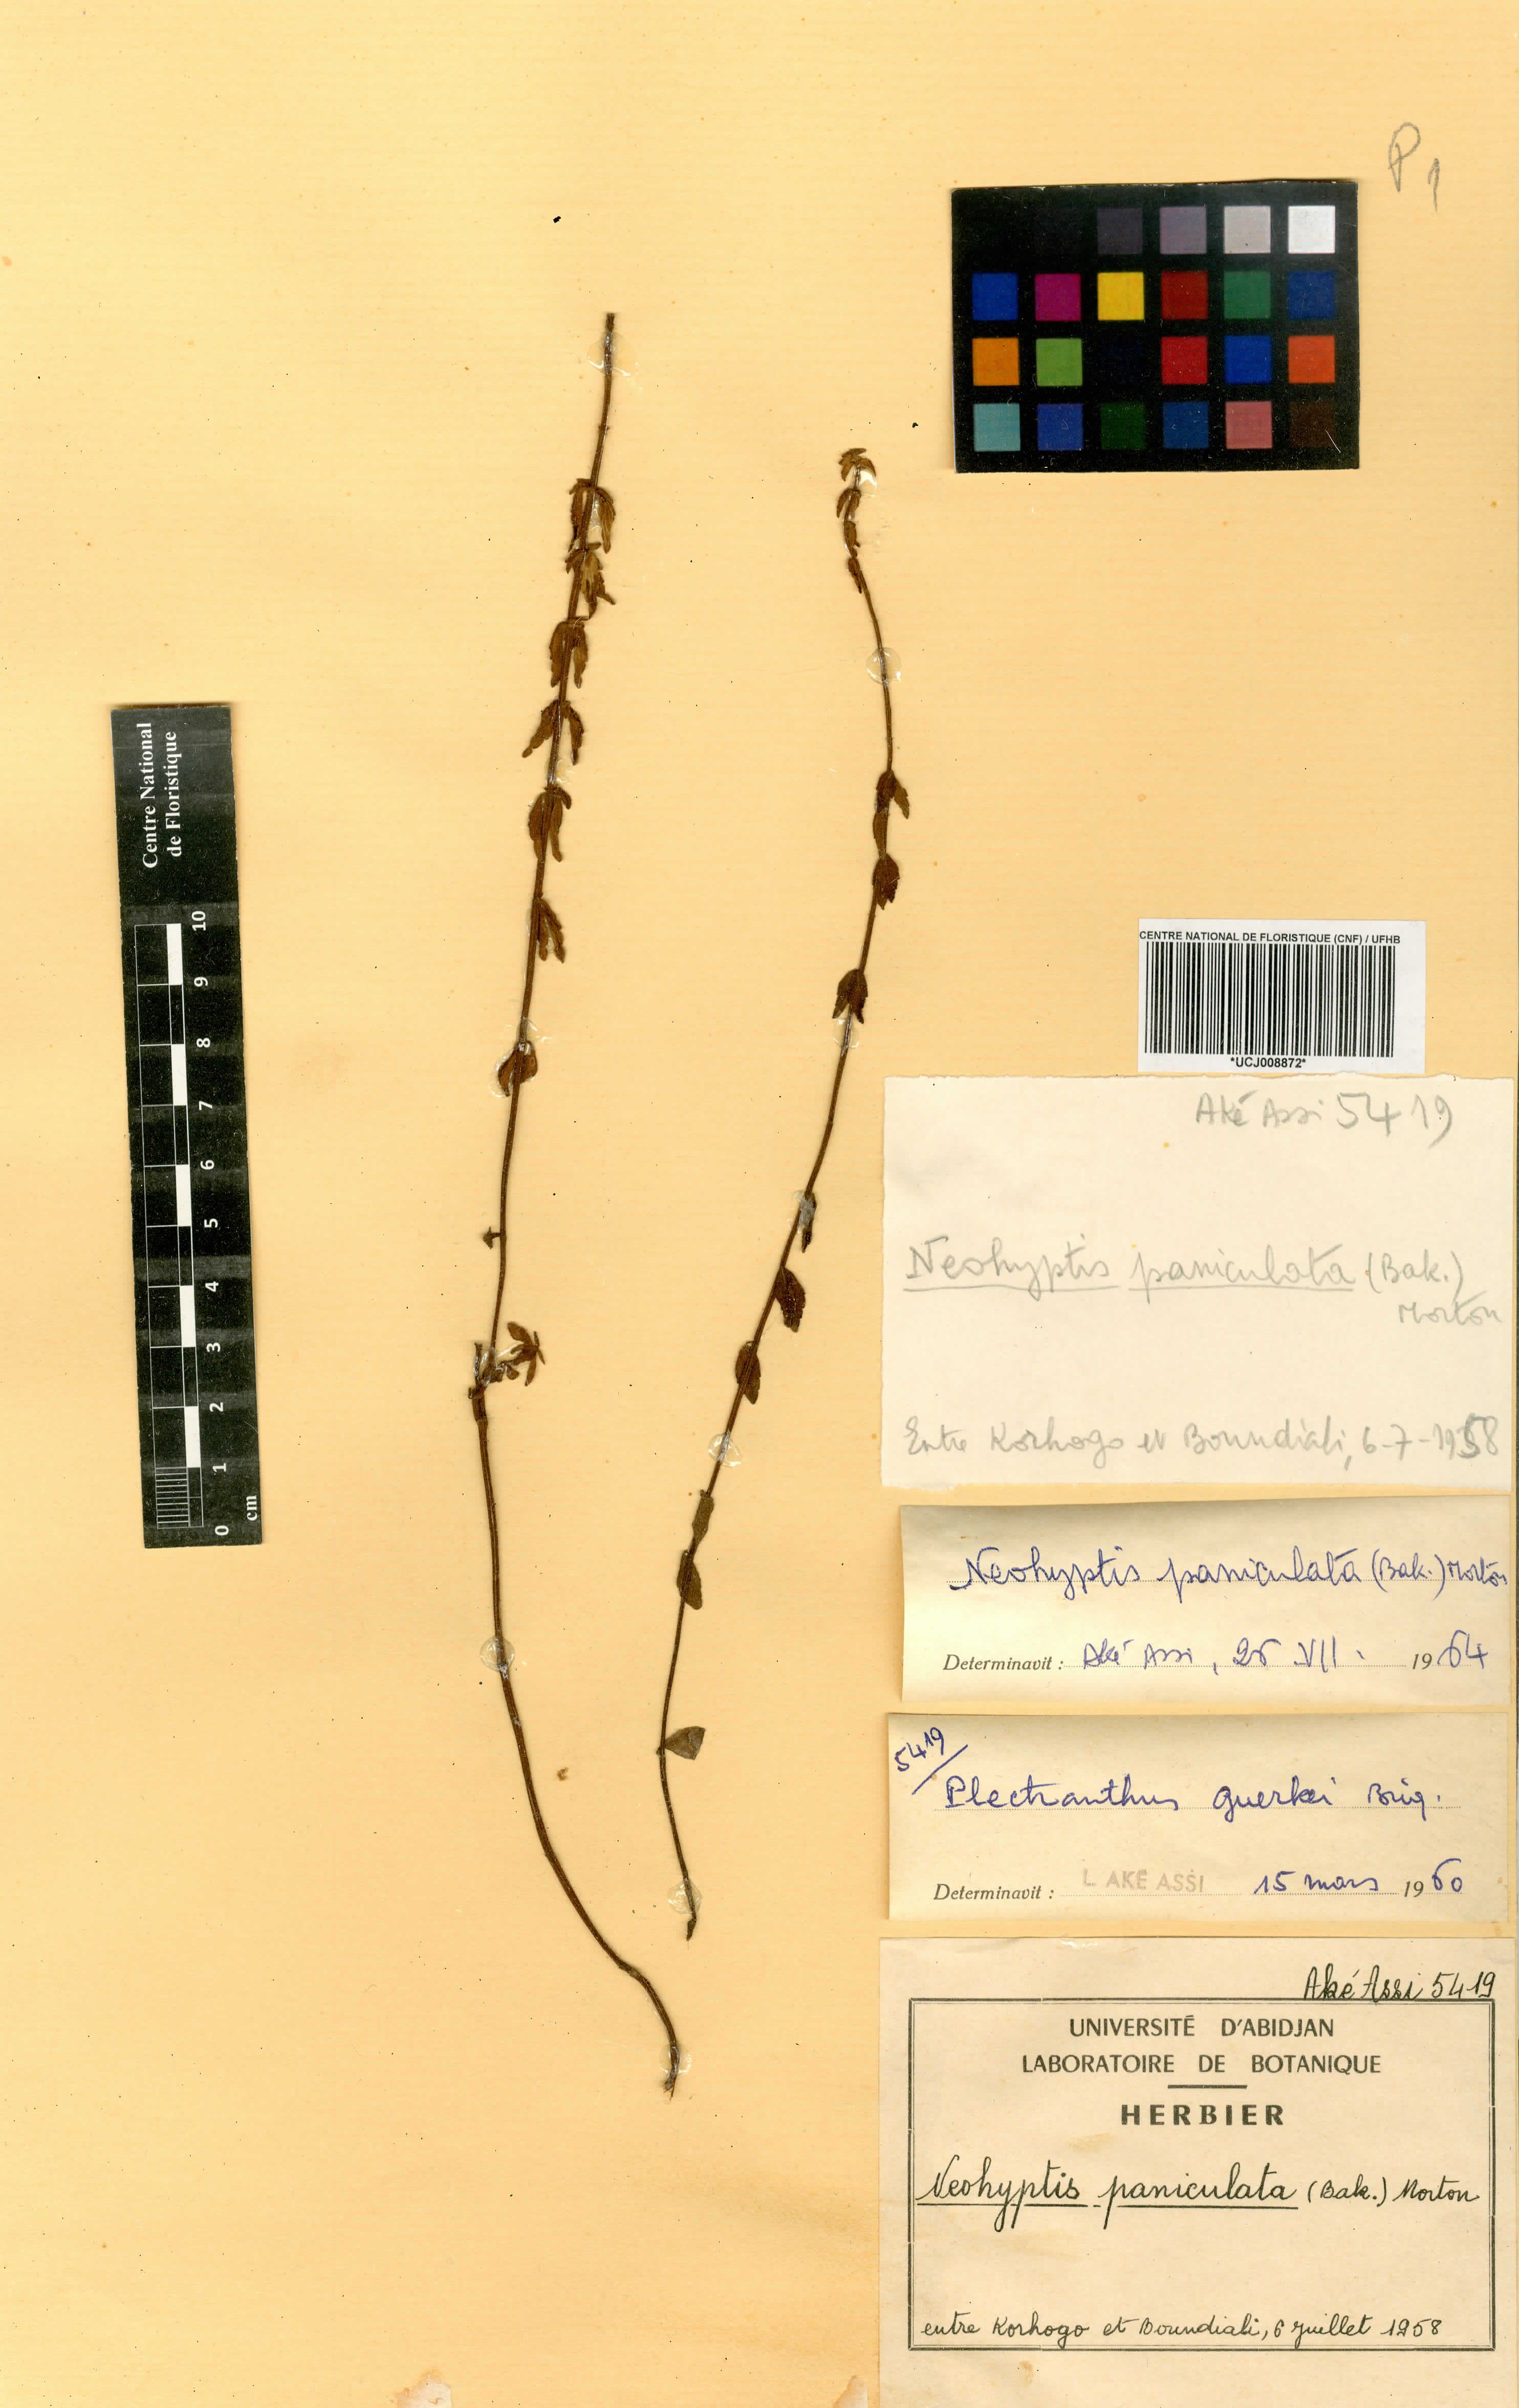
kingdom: Plantae
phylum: Tracheophyta
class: Magnoliopsida
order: Lamiales
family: Lamiaceae
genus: Coleus
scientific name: Coleus guerkei
